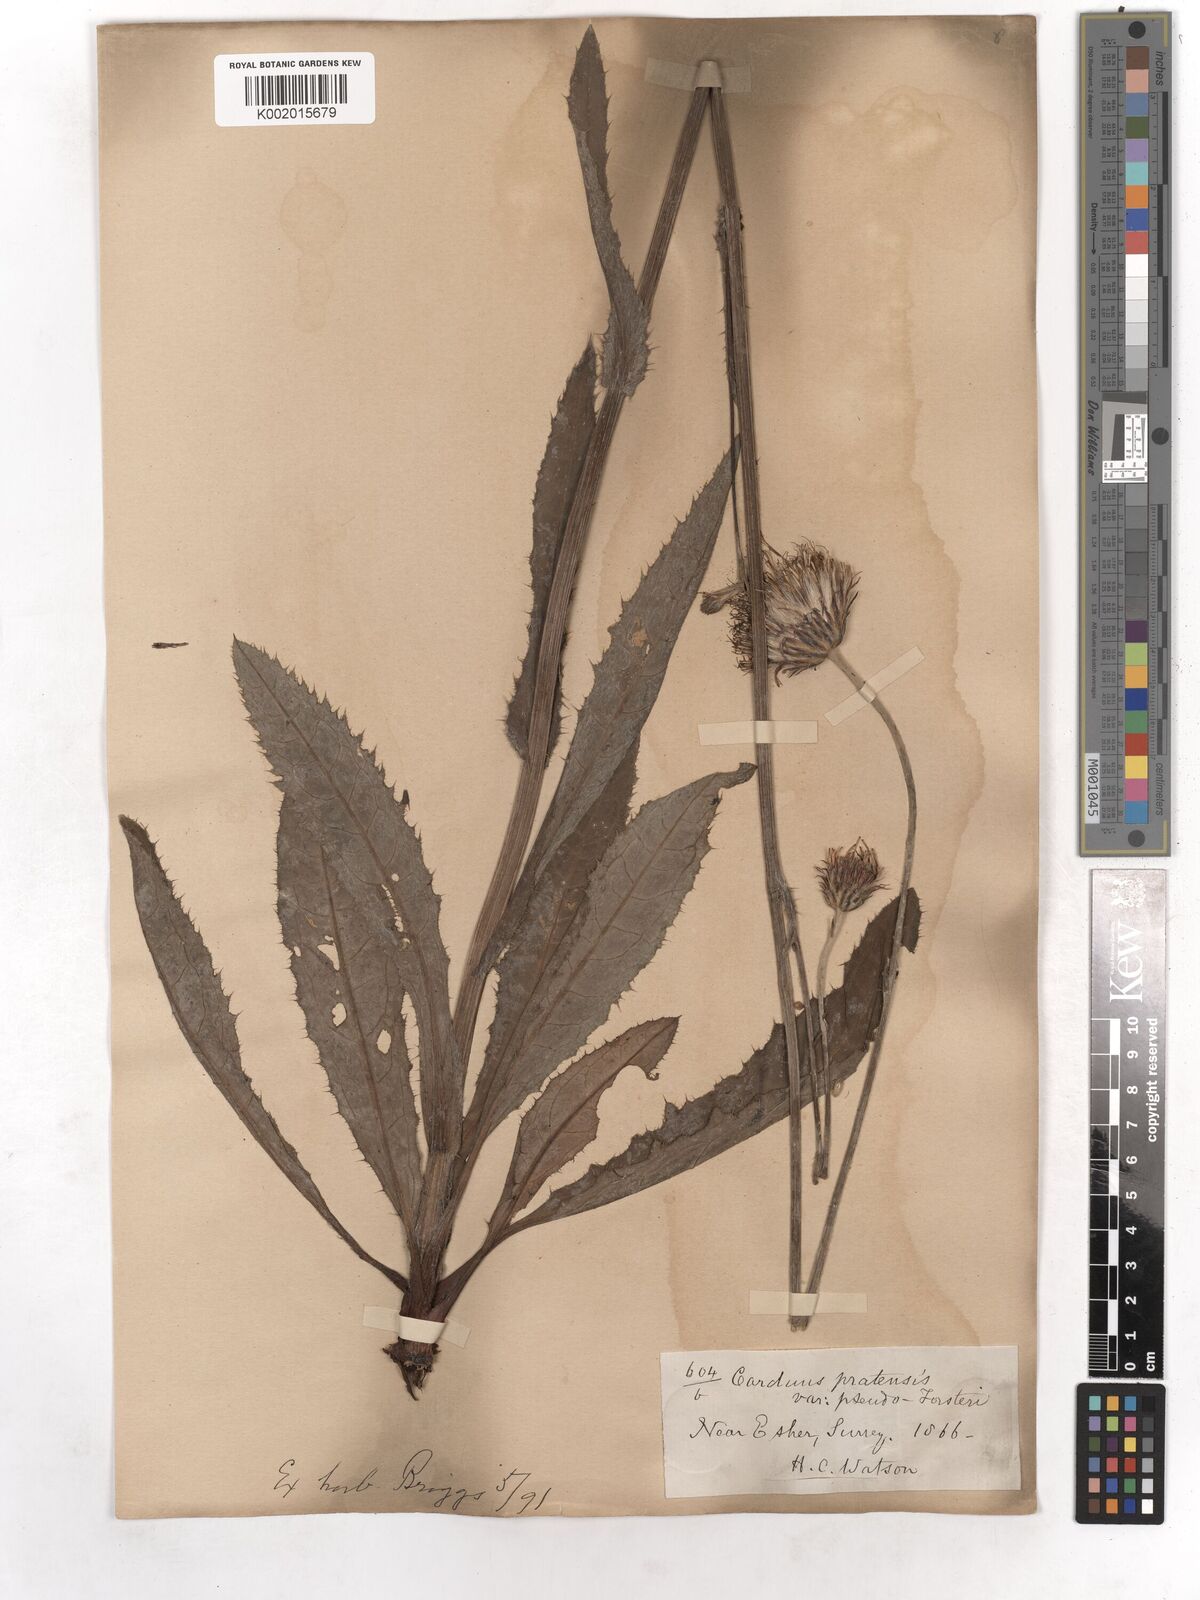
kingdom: Plantae
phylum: Tracheophyta
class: Magnoliopsida
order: Asterales
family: Asteraceae
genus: Cirsium
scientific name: Cirsium monspessulanum
